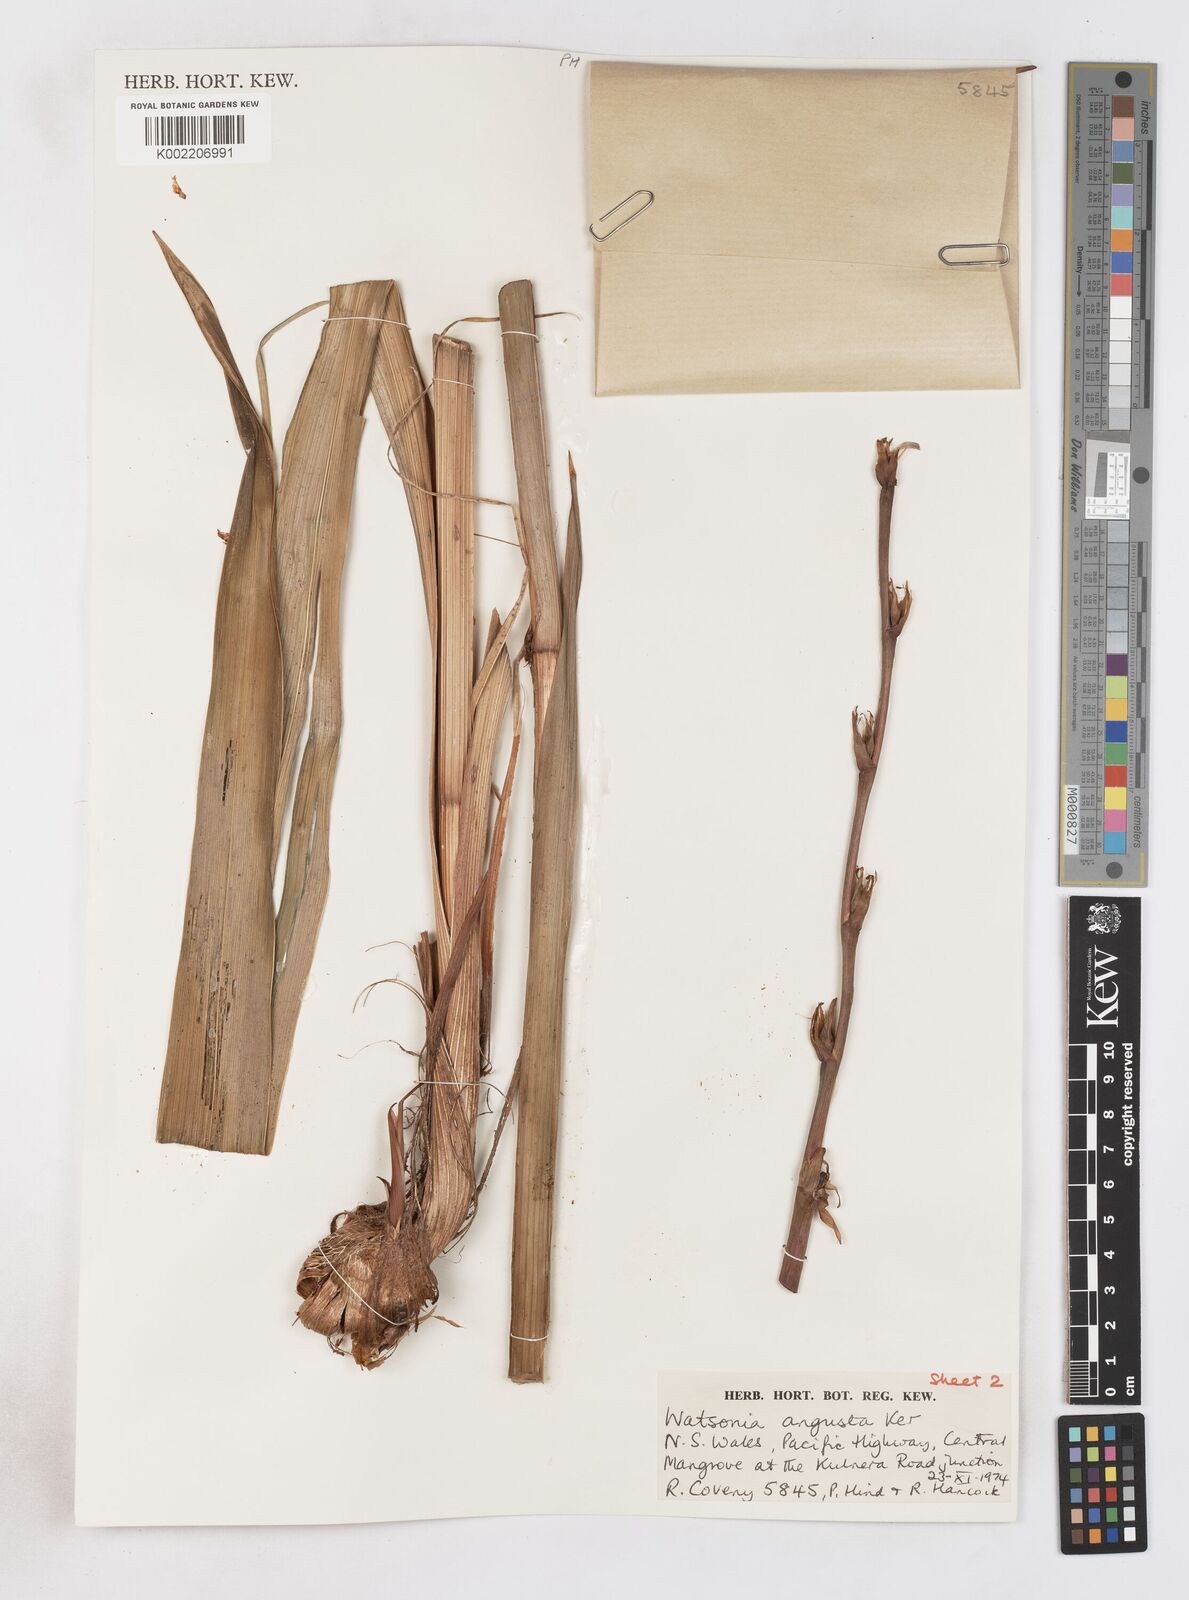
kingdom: Plantae
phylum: Tracheophyta
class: Liliopsida
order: Asparagales
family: Iridaceae
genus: Watsonia
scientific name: Watsonia meriana
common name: Bulbil bugle-lily
